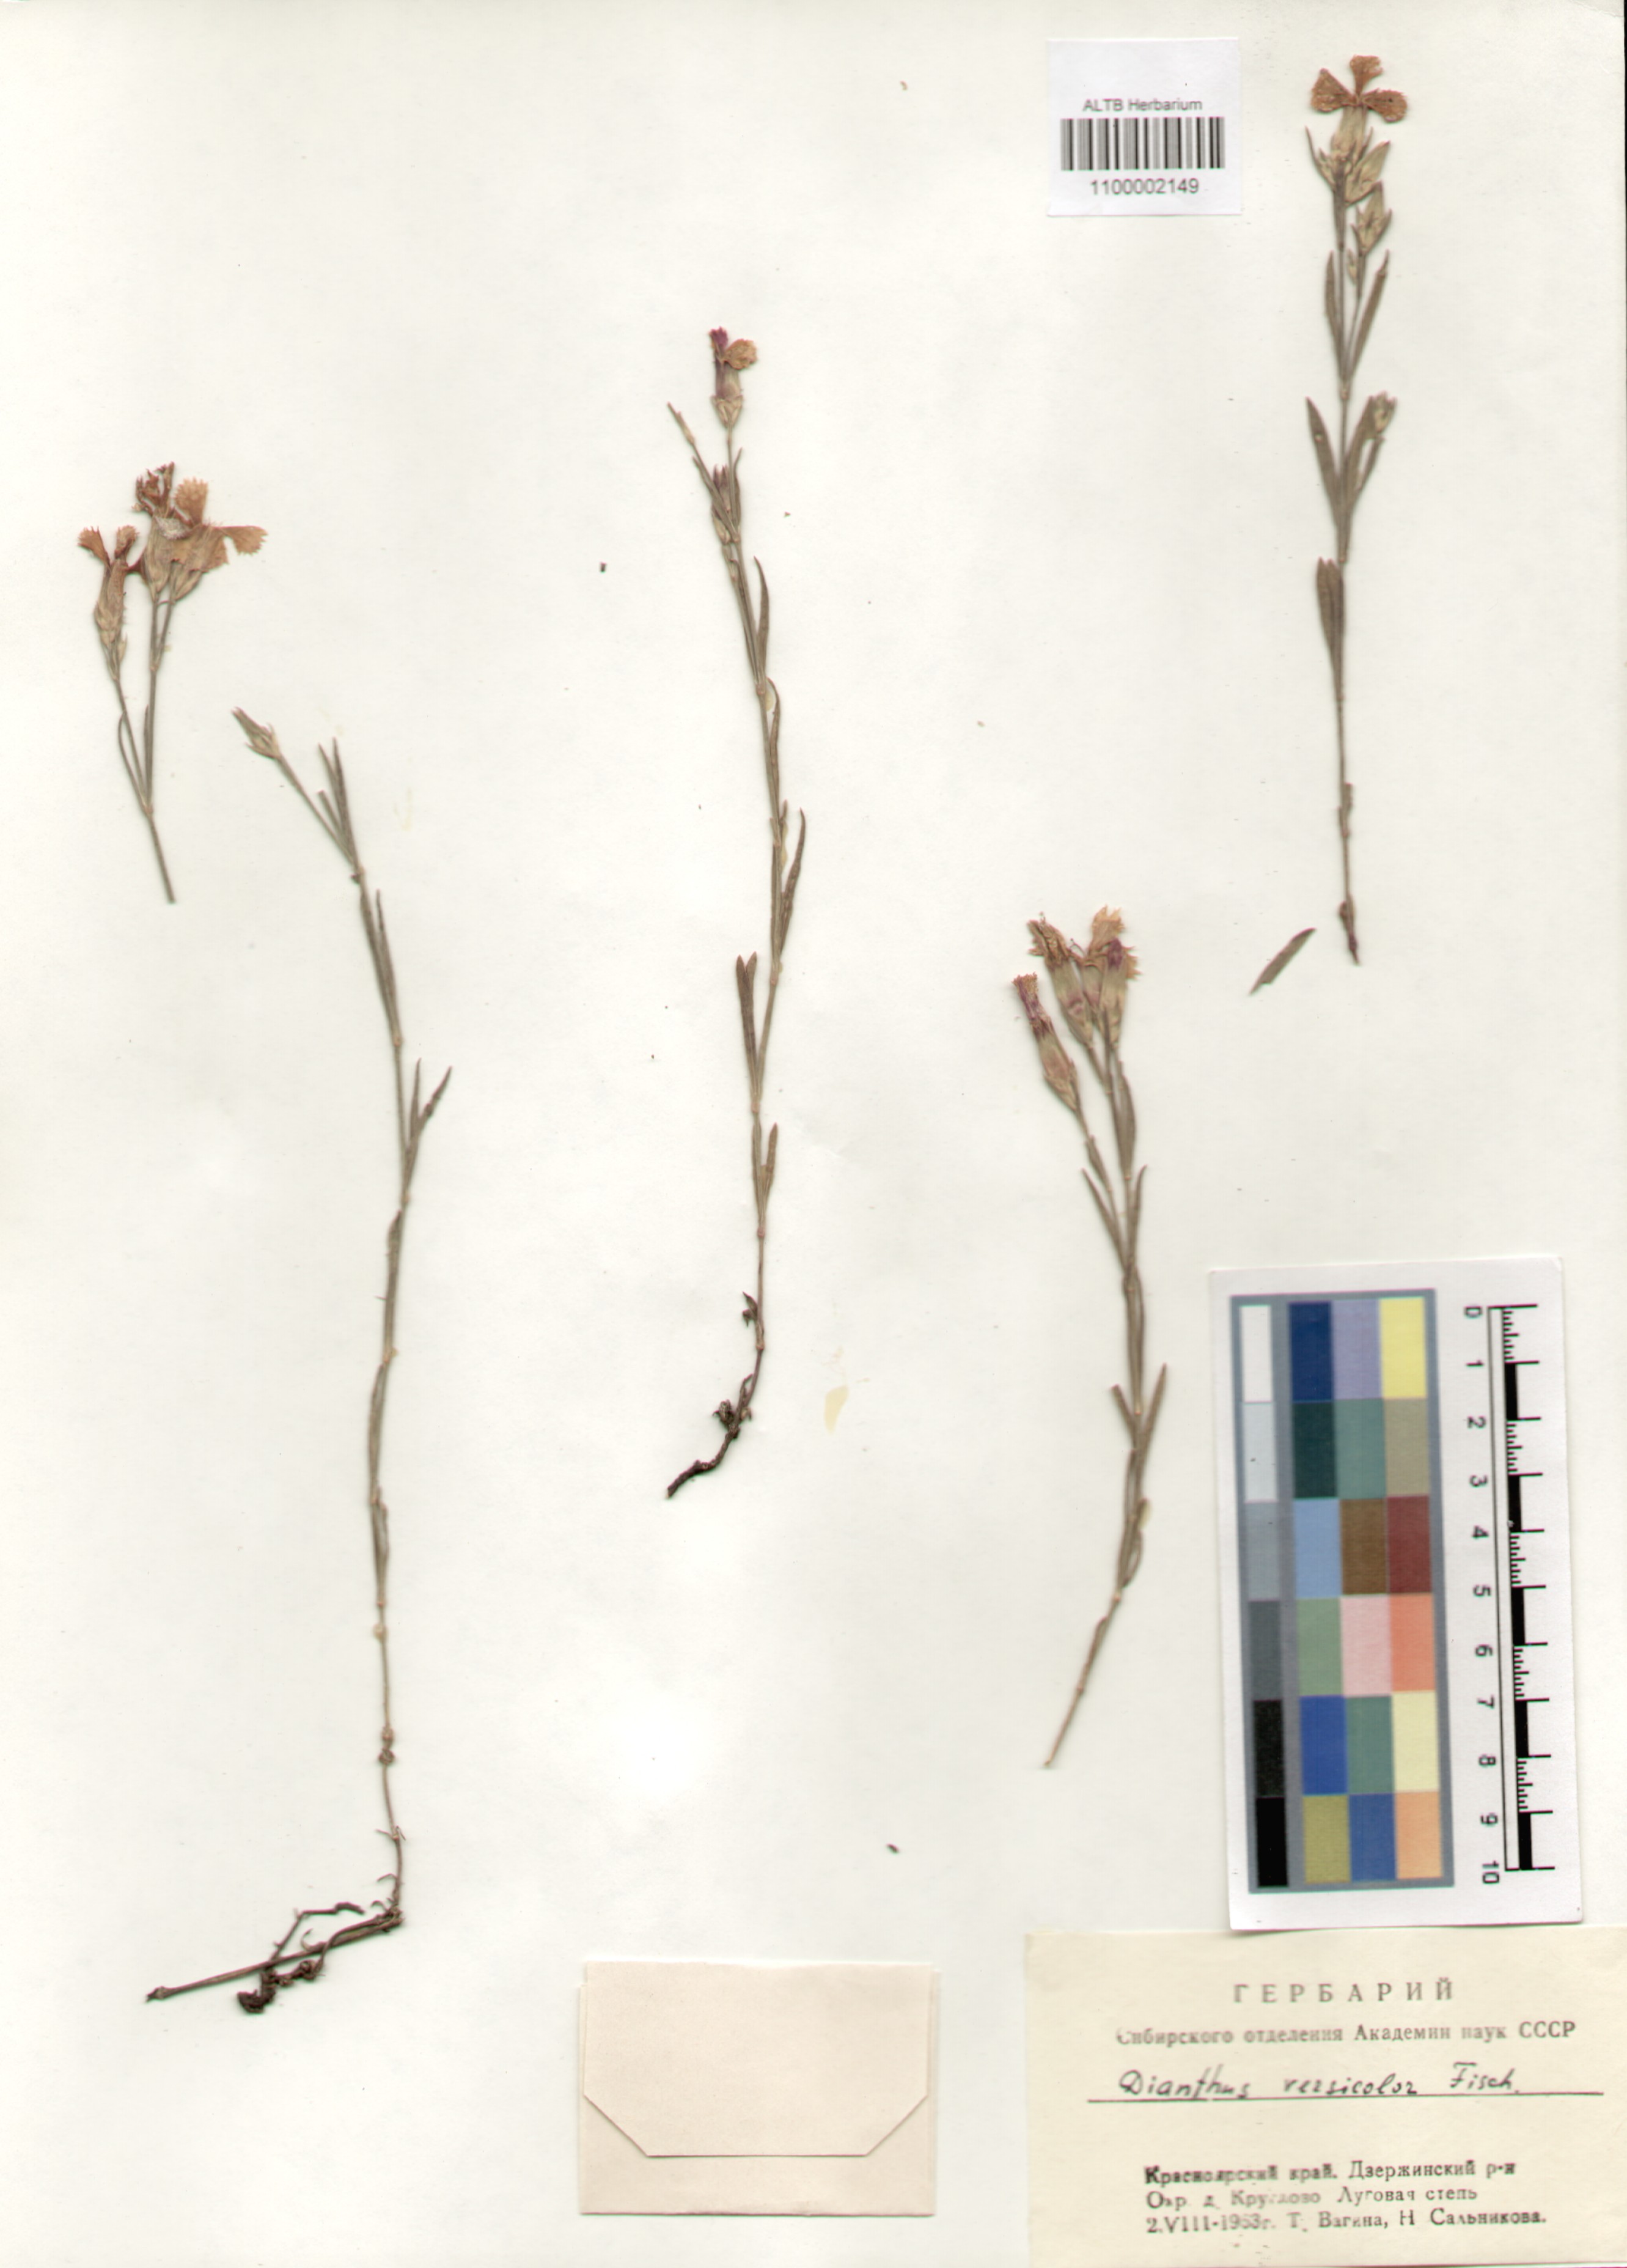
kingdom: Plantae
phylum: Tracheophyta
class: Magnoliopsida
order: Caryophyllales
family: Caryophyllaceae
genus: Dianthus
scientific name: Dianthus chinensis
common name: Rainbow pink
